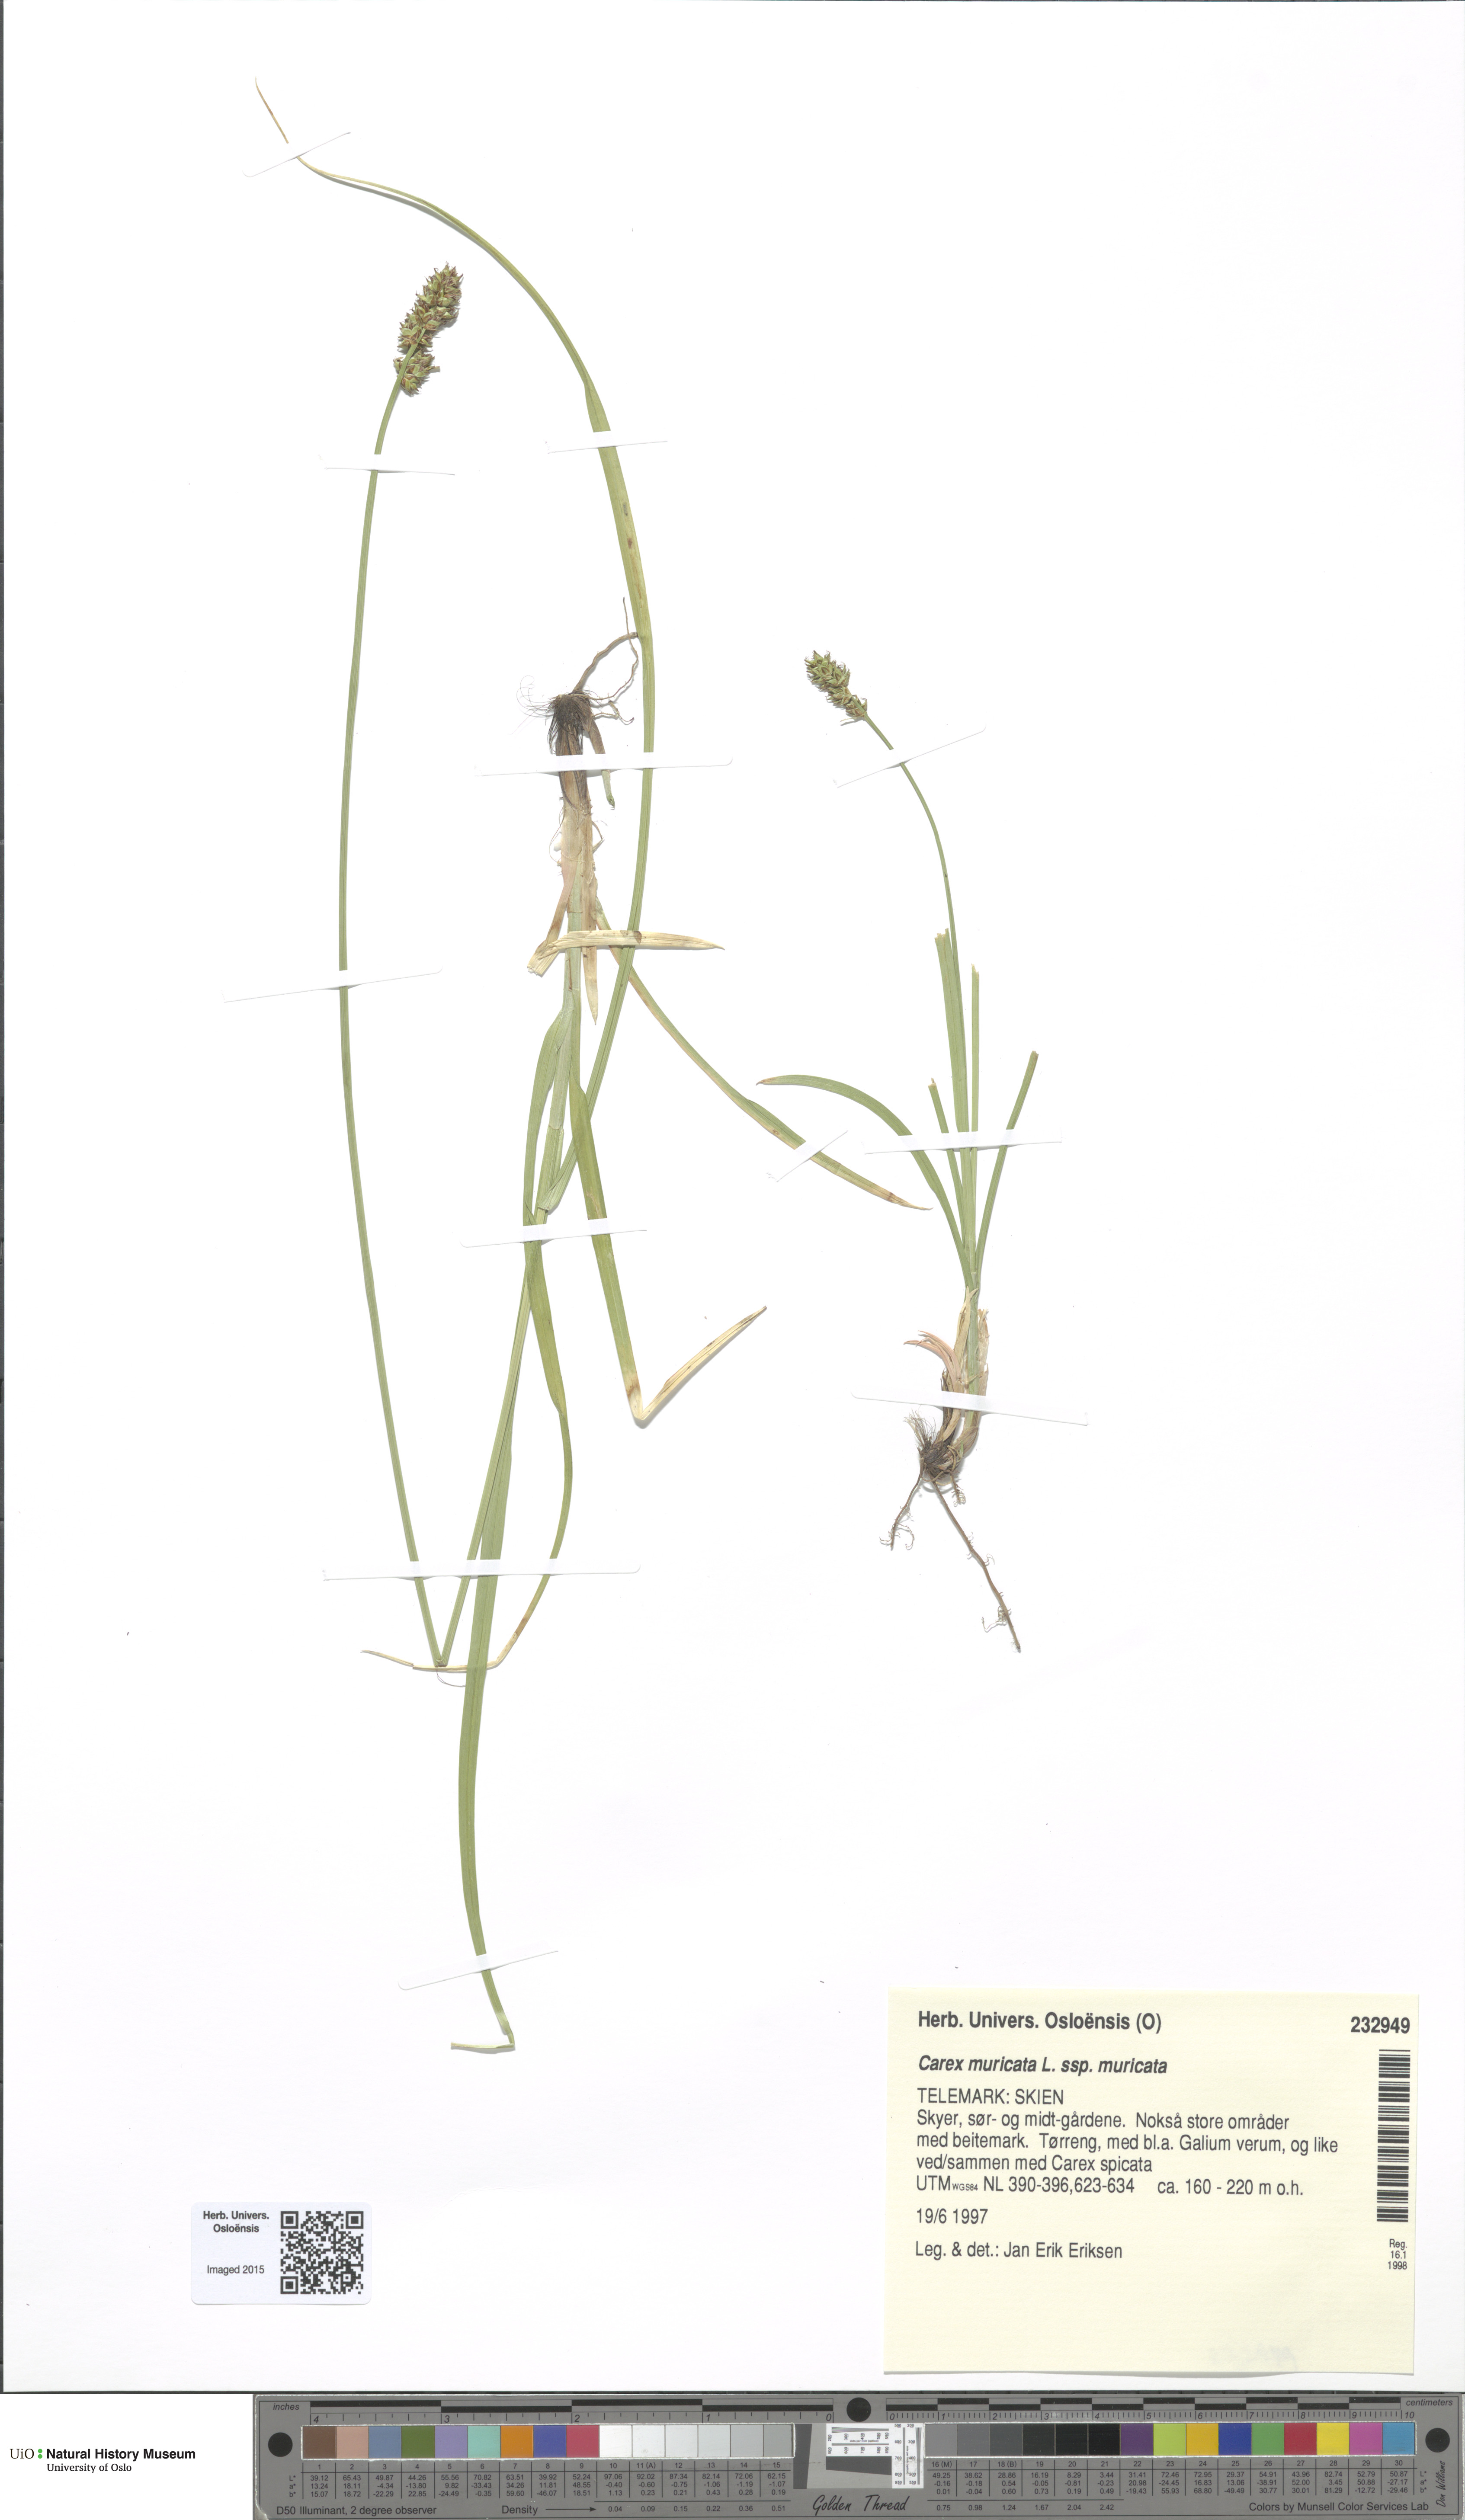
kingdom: Plantae
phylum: Tracheophyta
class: Liliopsida
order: Poales
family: Cyperaceae
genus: Carex
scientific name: Carex muricata
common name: Rough sedge
